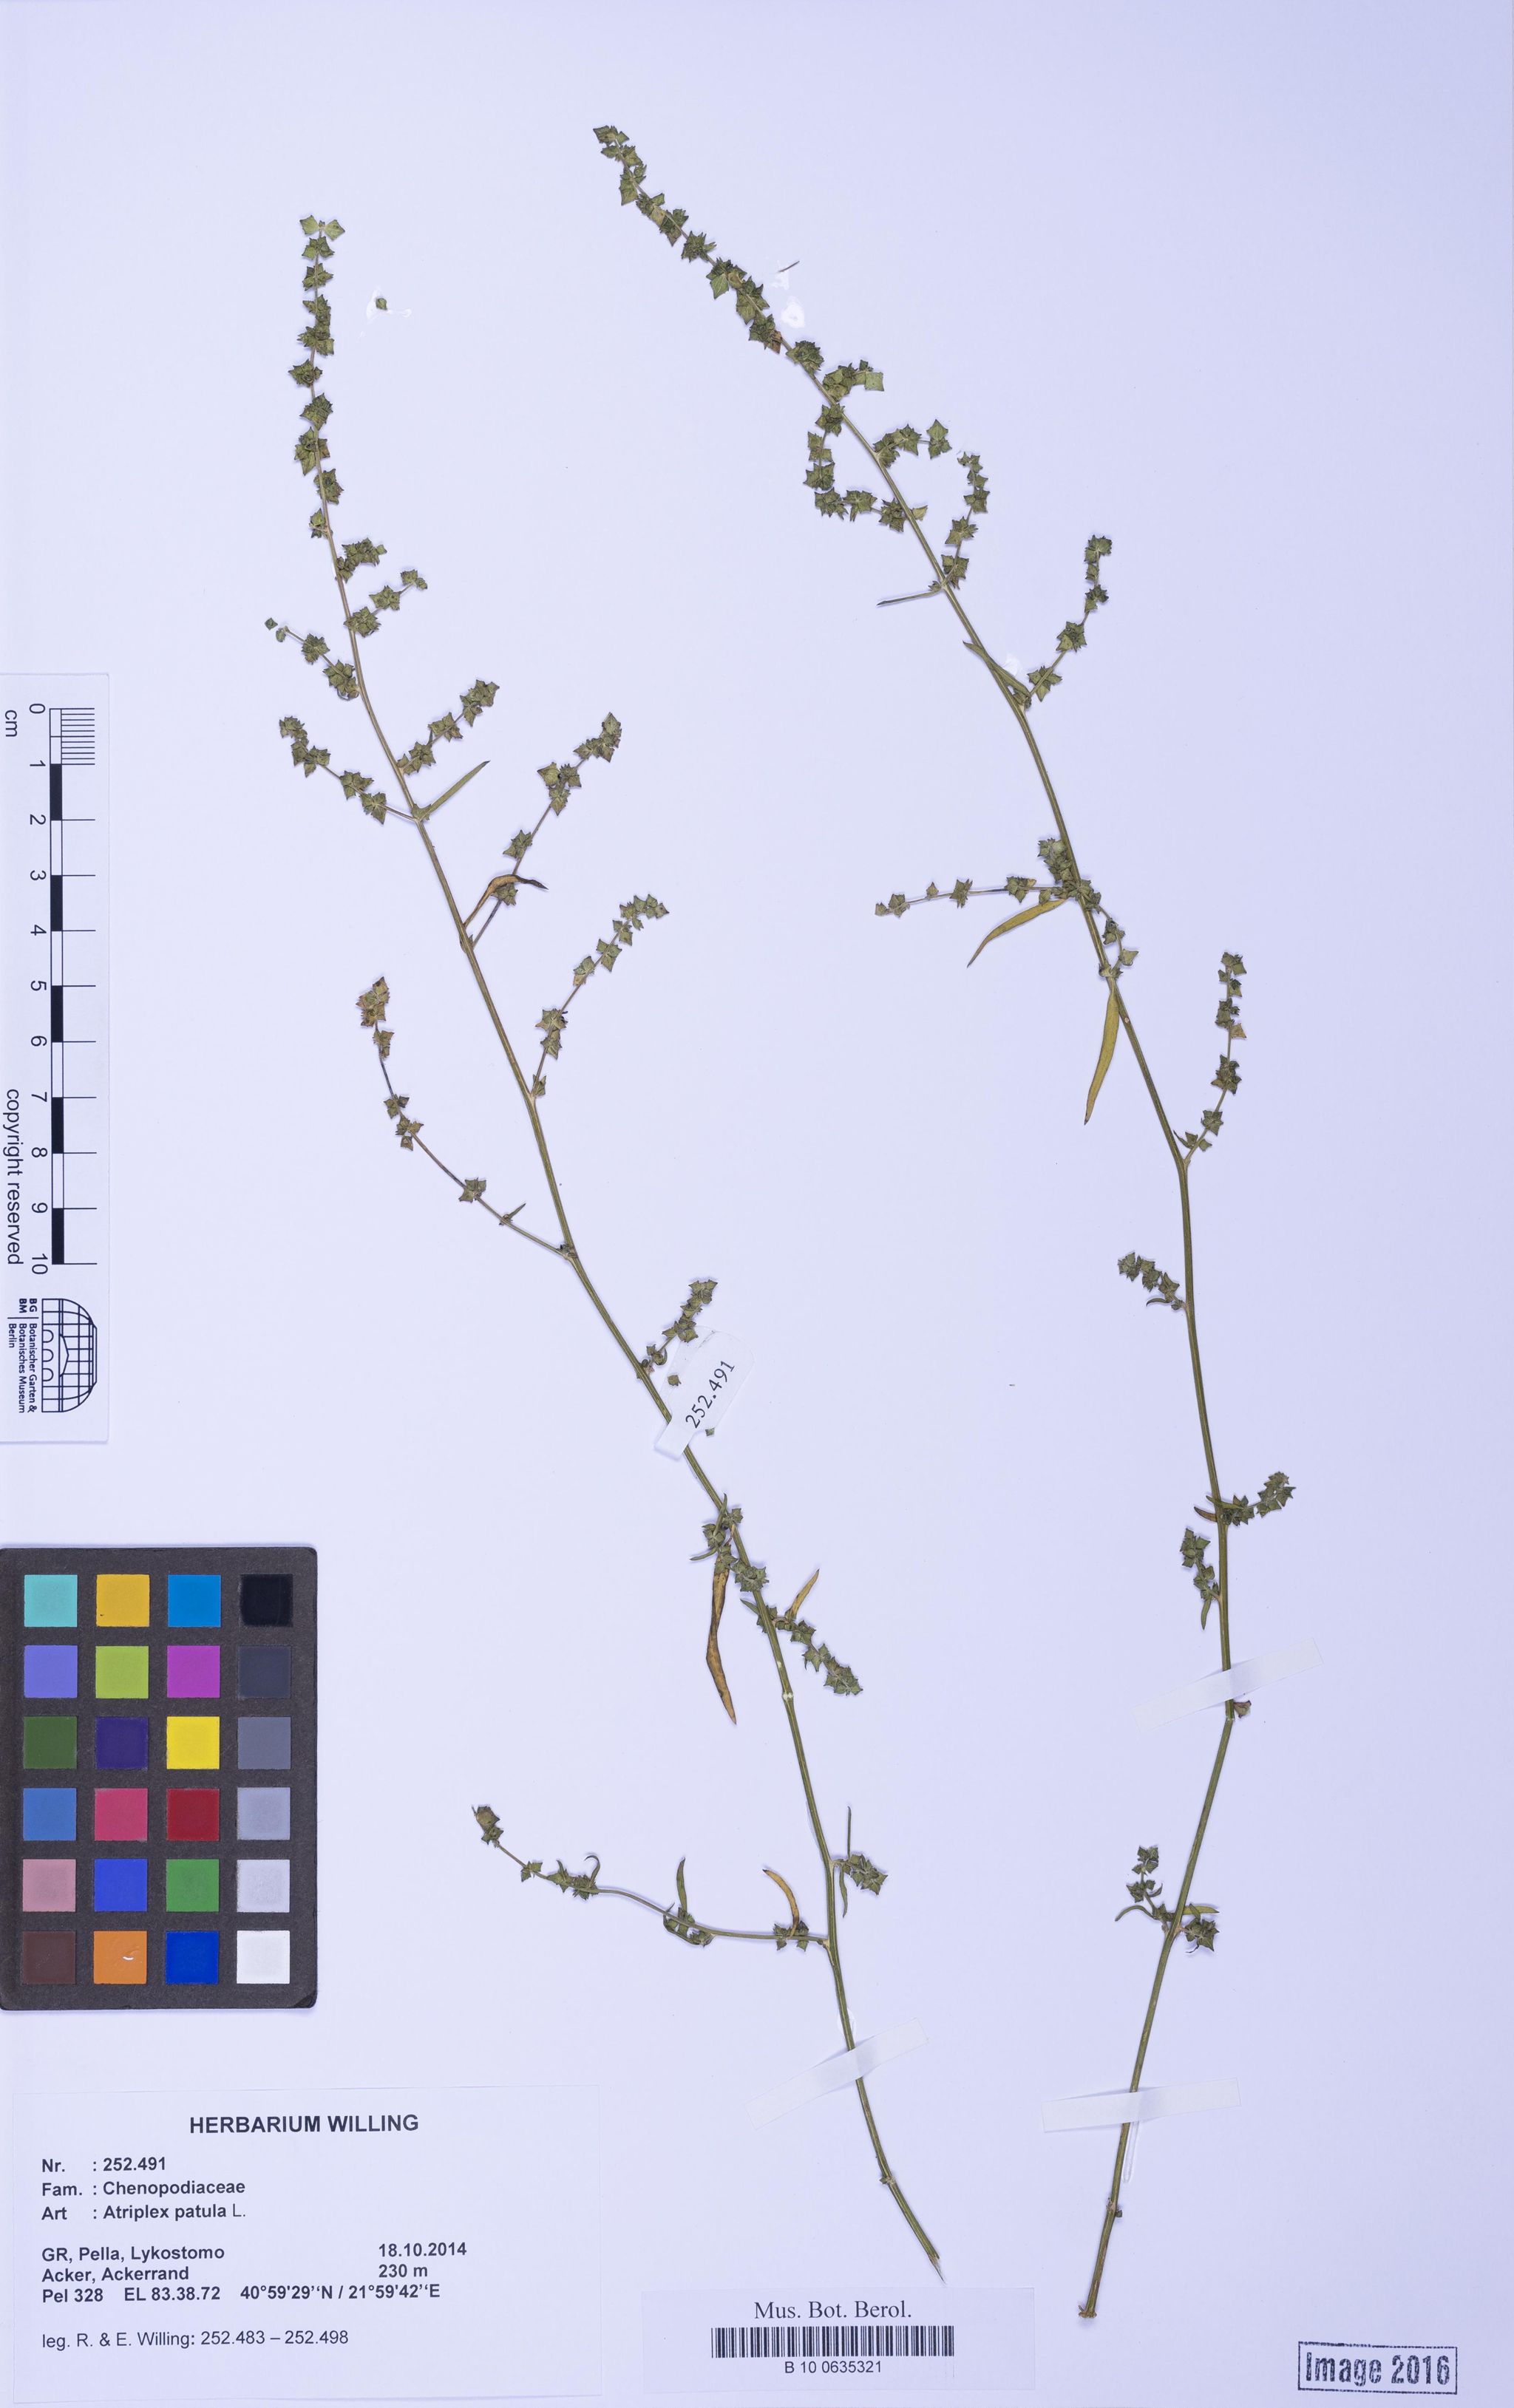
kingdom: Plantae
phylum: Tracheophyta
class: Magnoliopsida
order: Caryophyllales
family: Amaranthaceae
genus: Atriplex
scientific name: Atriplex patula
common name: Common orache
